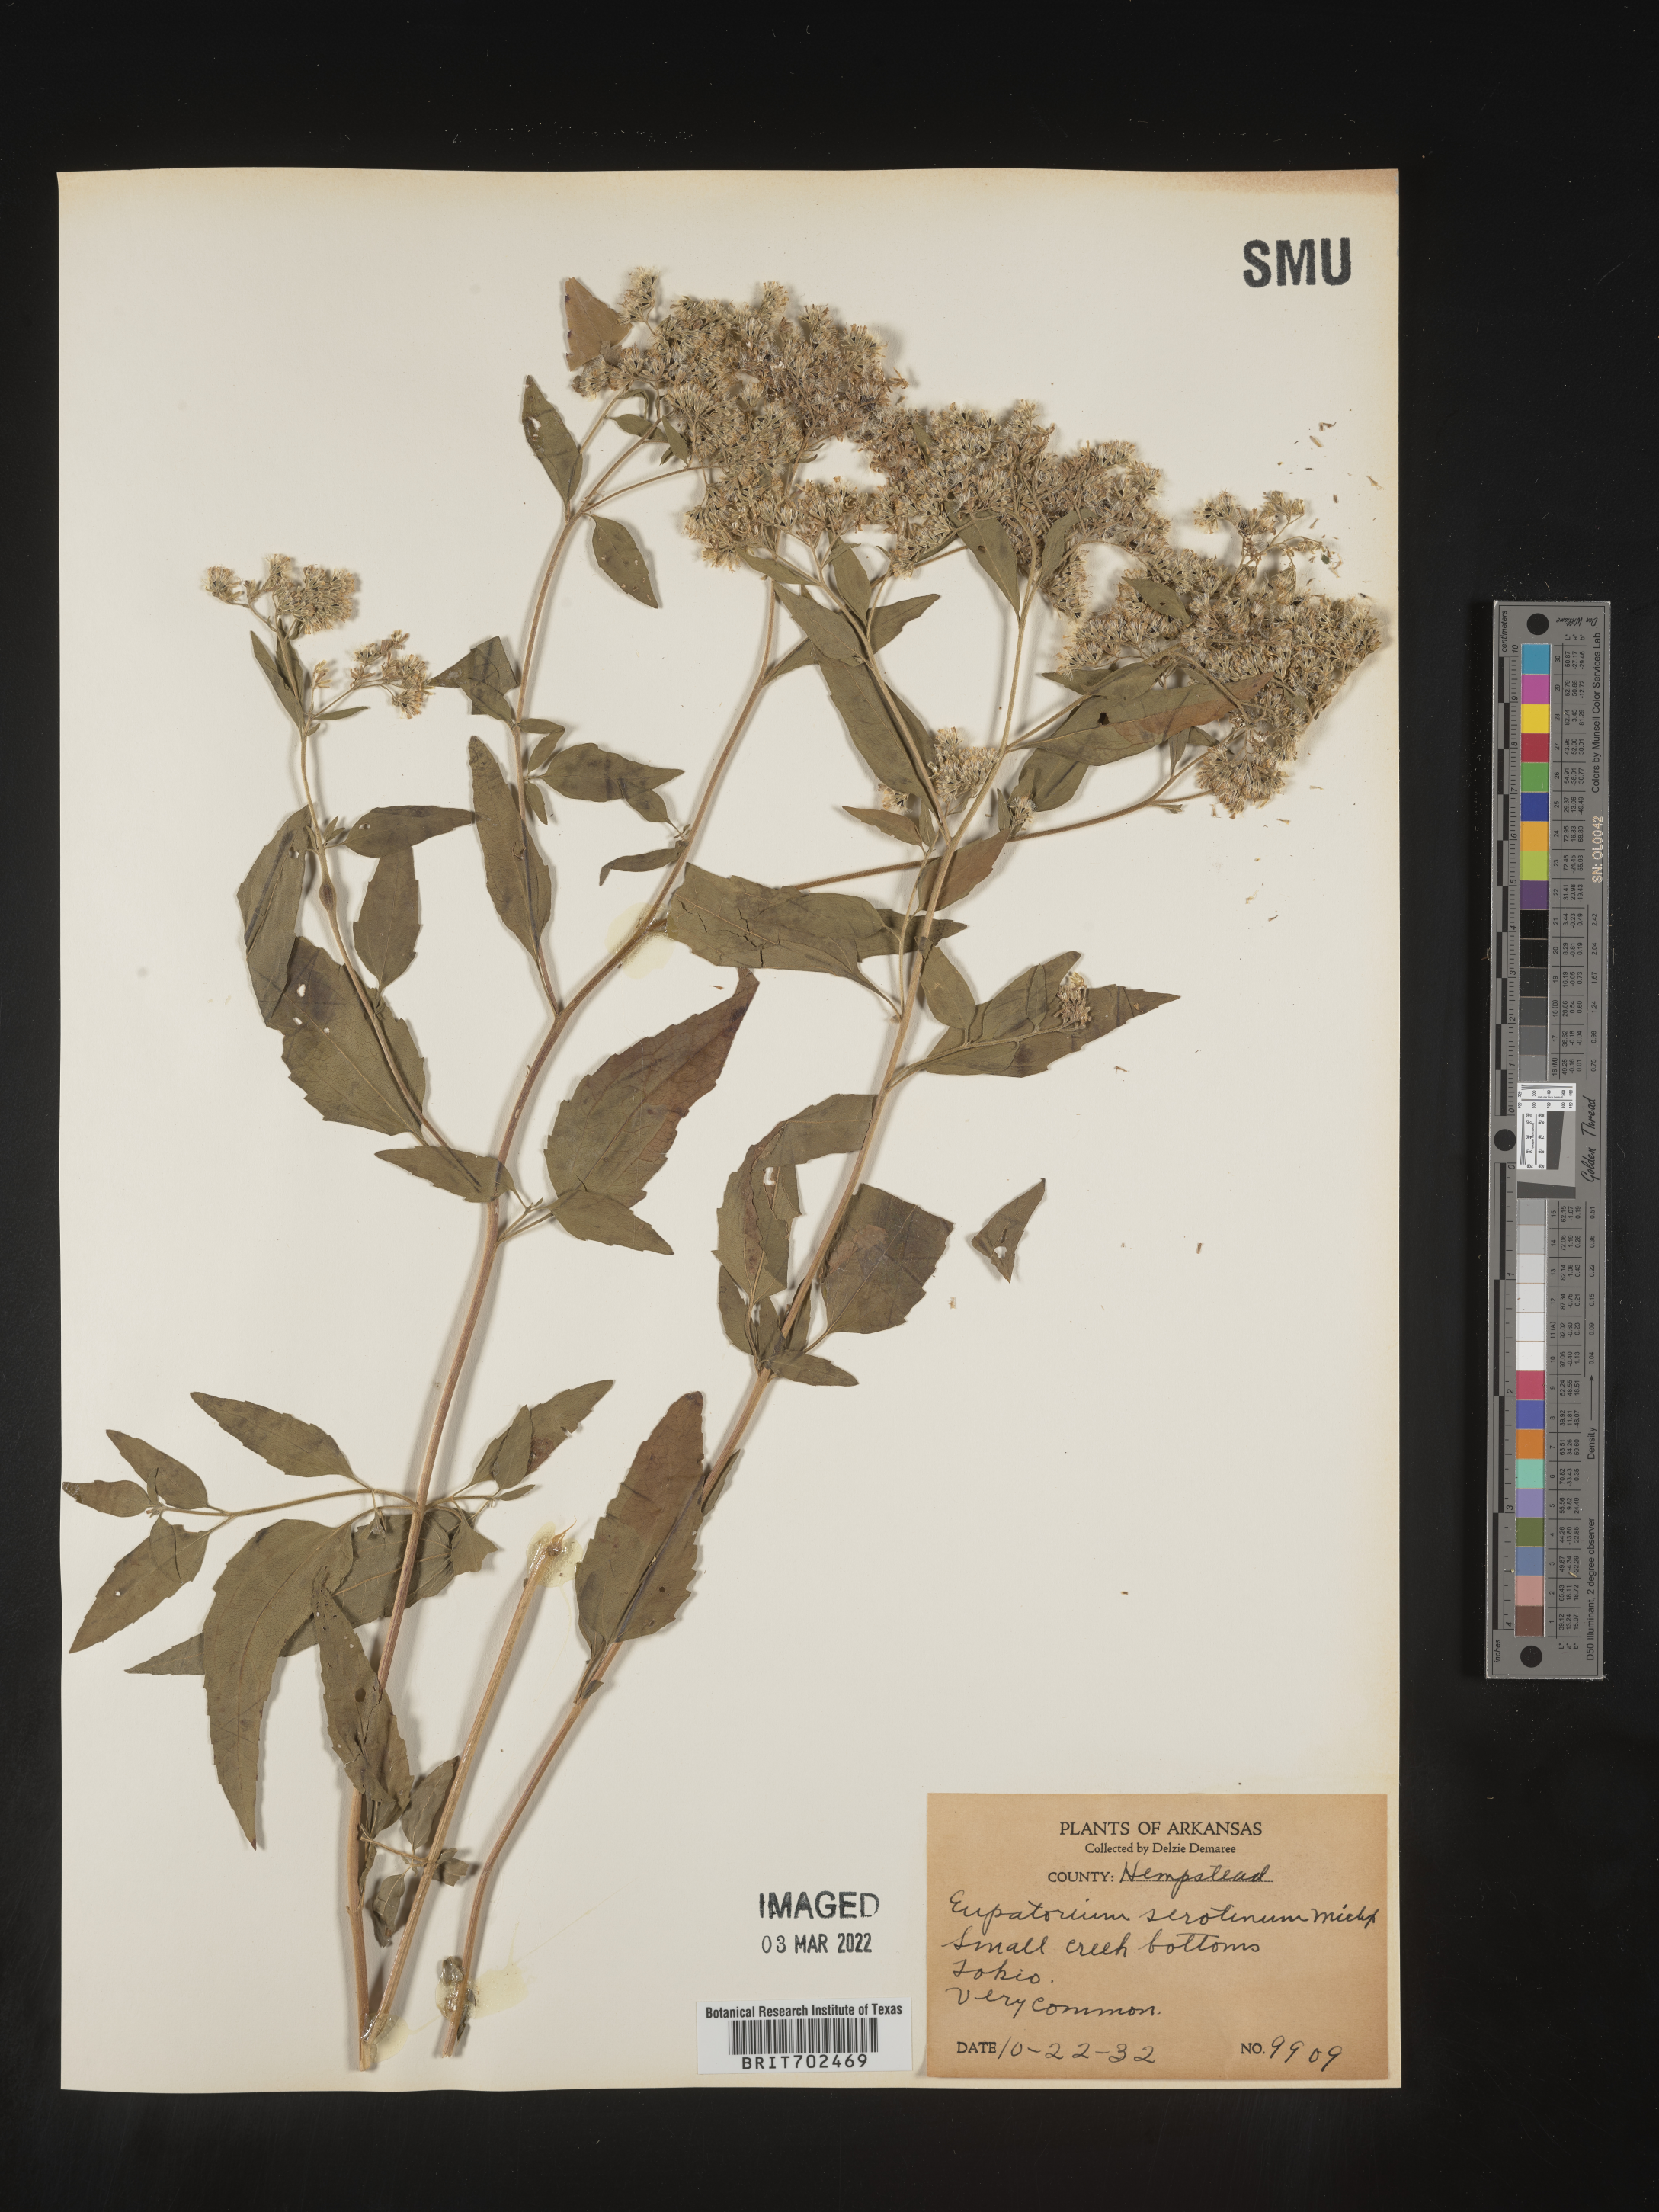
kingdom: Plantae
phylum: Tracheophyta
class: Magnoliopsida
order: Asterales
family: Asteraceae
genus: Eupatorium
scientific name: Eupatorium serotinum
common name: Late boneset
